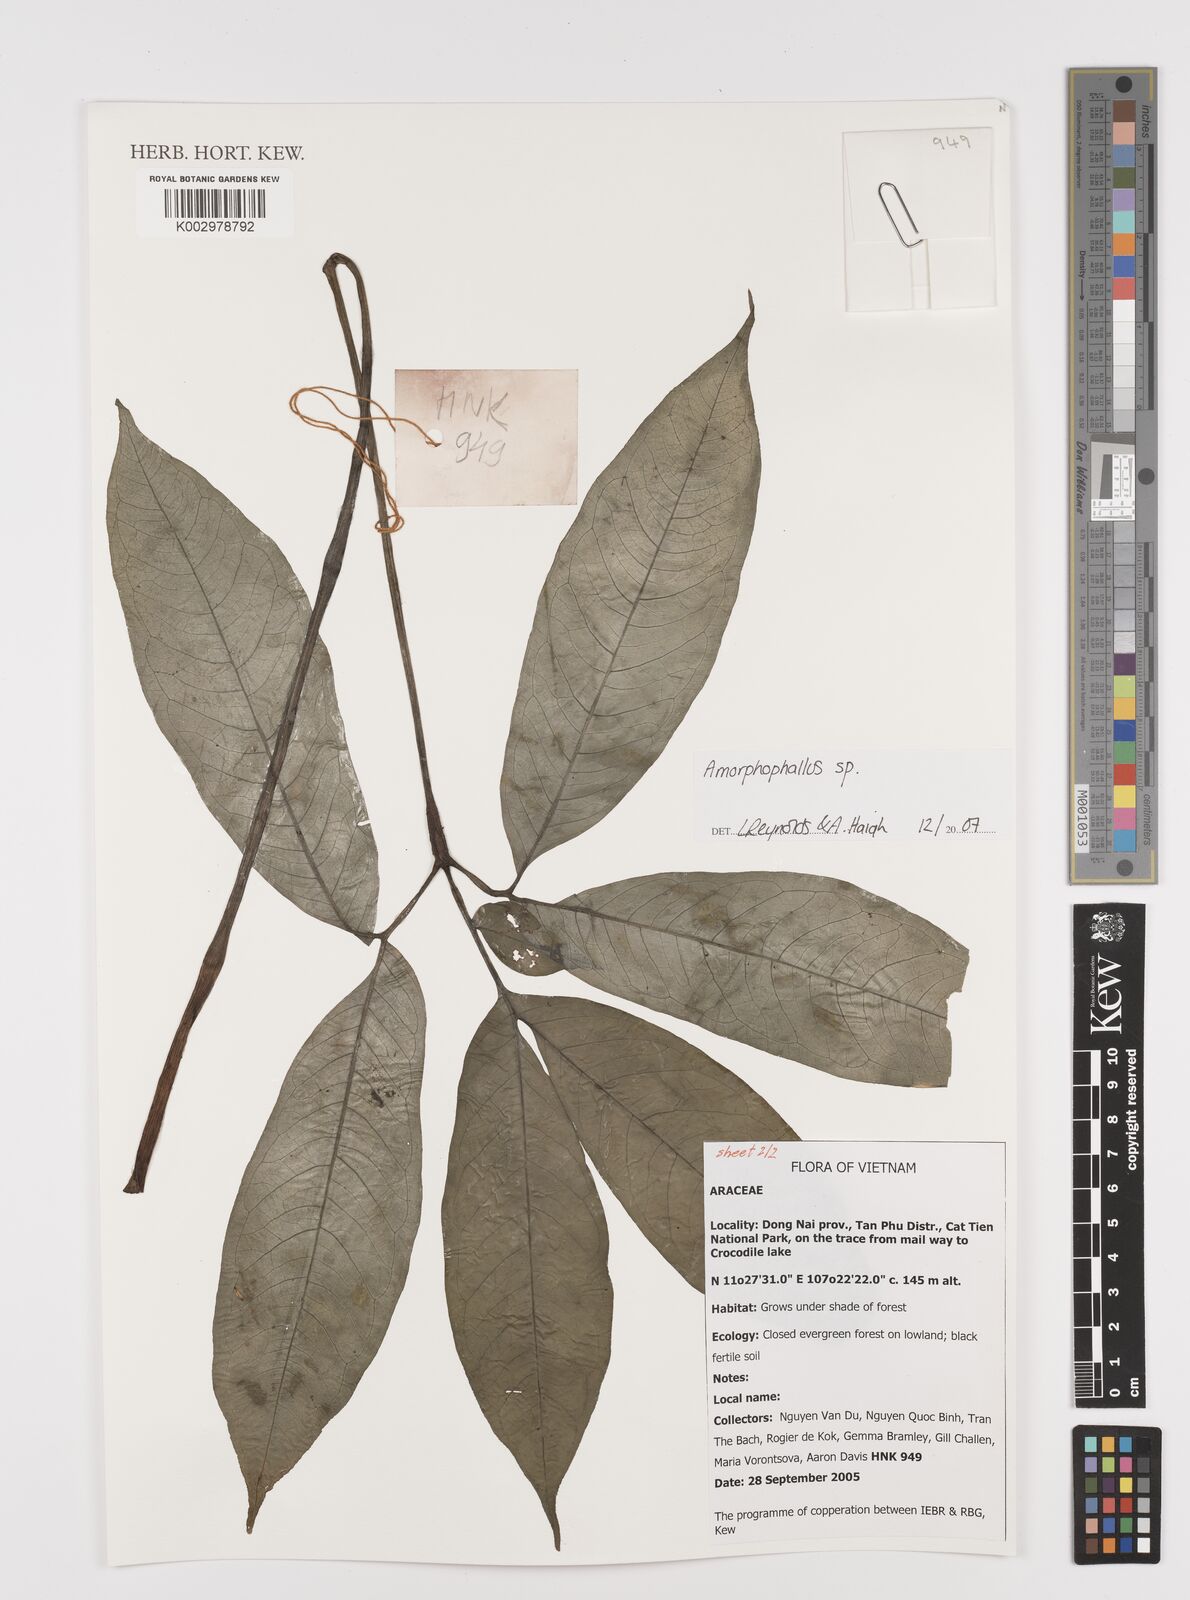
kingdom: Plantae
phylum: Tracheophyta
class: Liliopsida
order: Alismatales
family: Araceae
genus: Amorphophallus
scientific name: Amorphophallus
